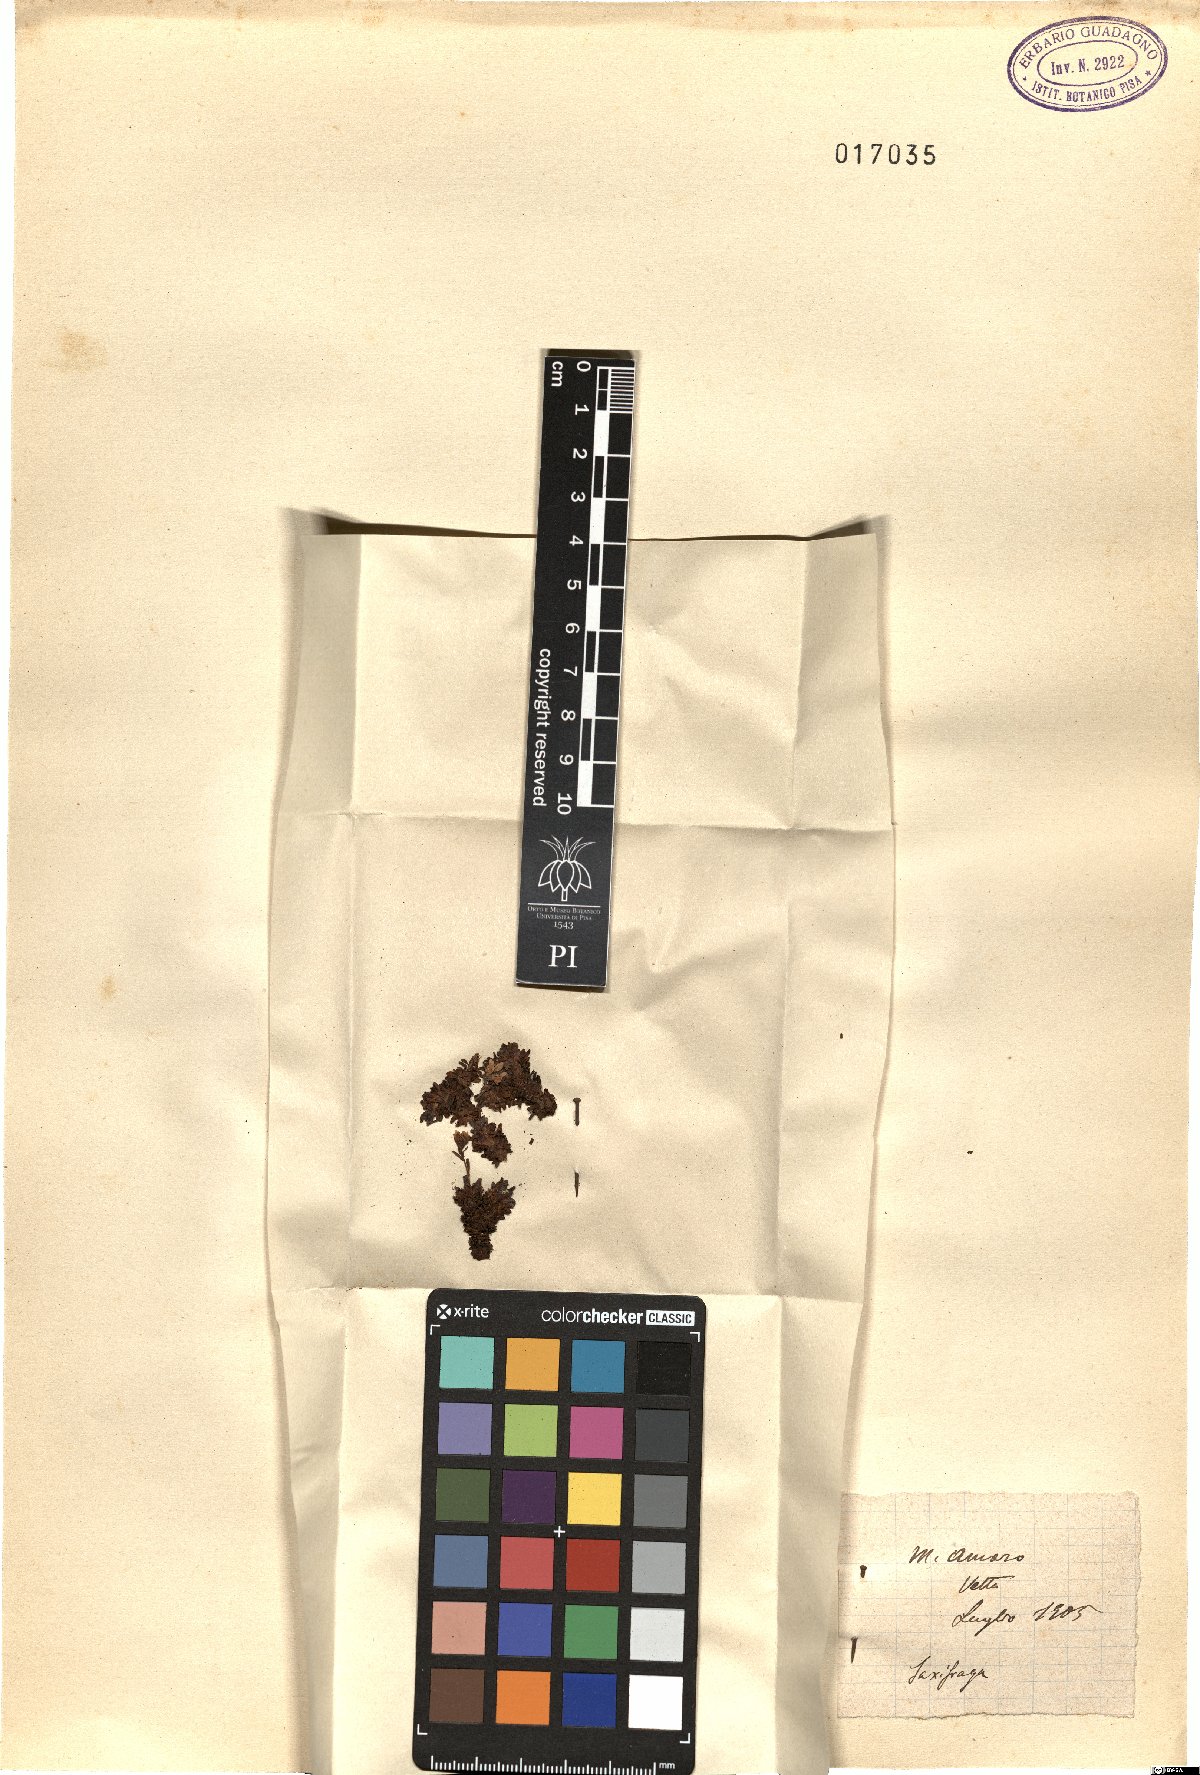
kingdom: Plantae
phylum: Tracheophyta
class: Magnoliopsida
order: Saxifragales
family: Saxifragaceae
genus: Saxifraga
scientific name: Saxifraga
